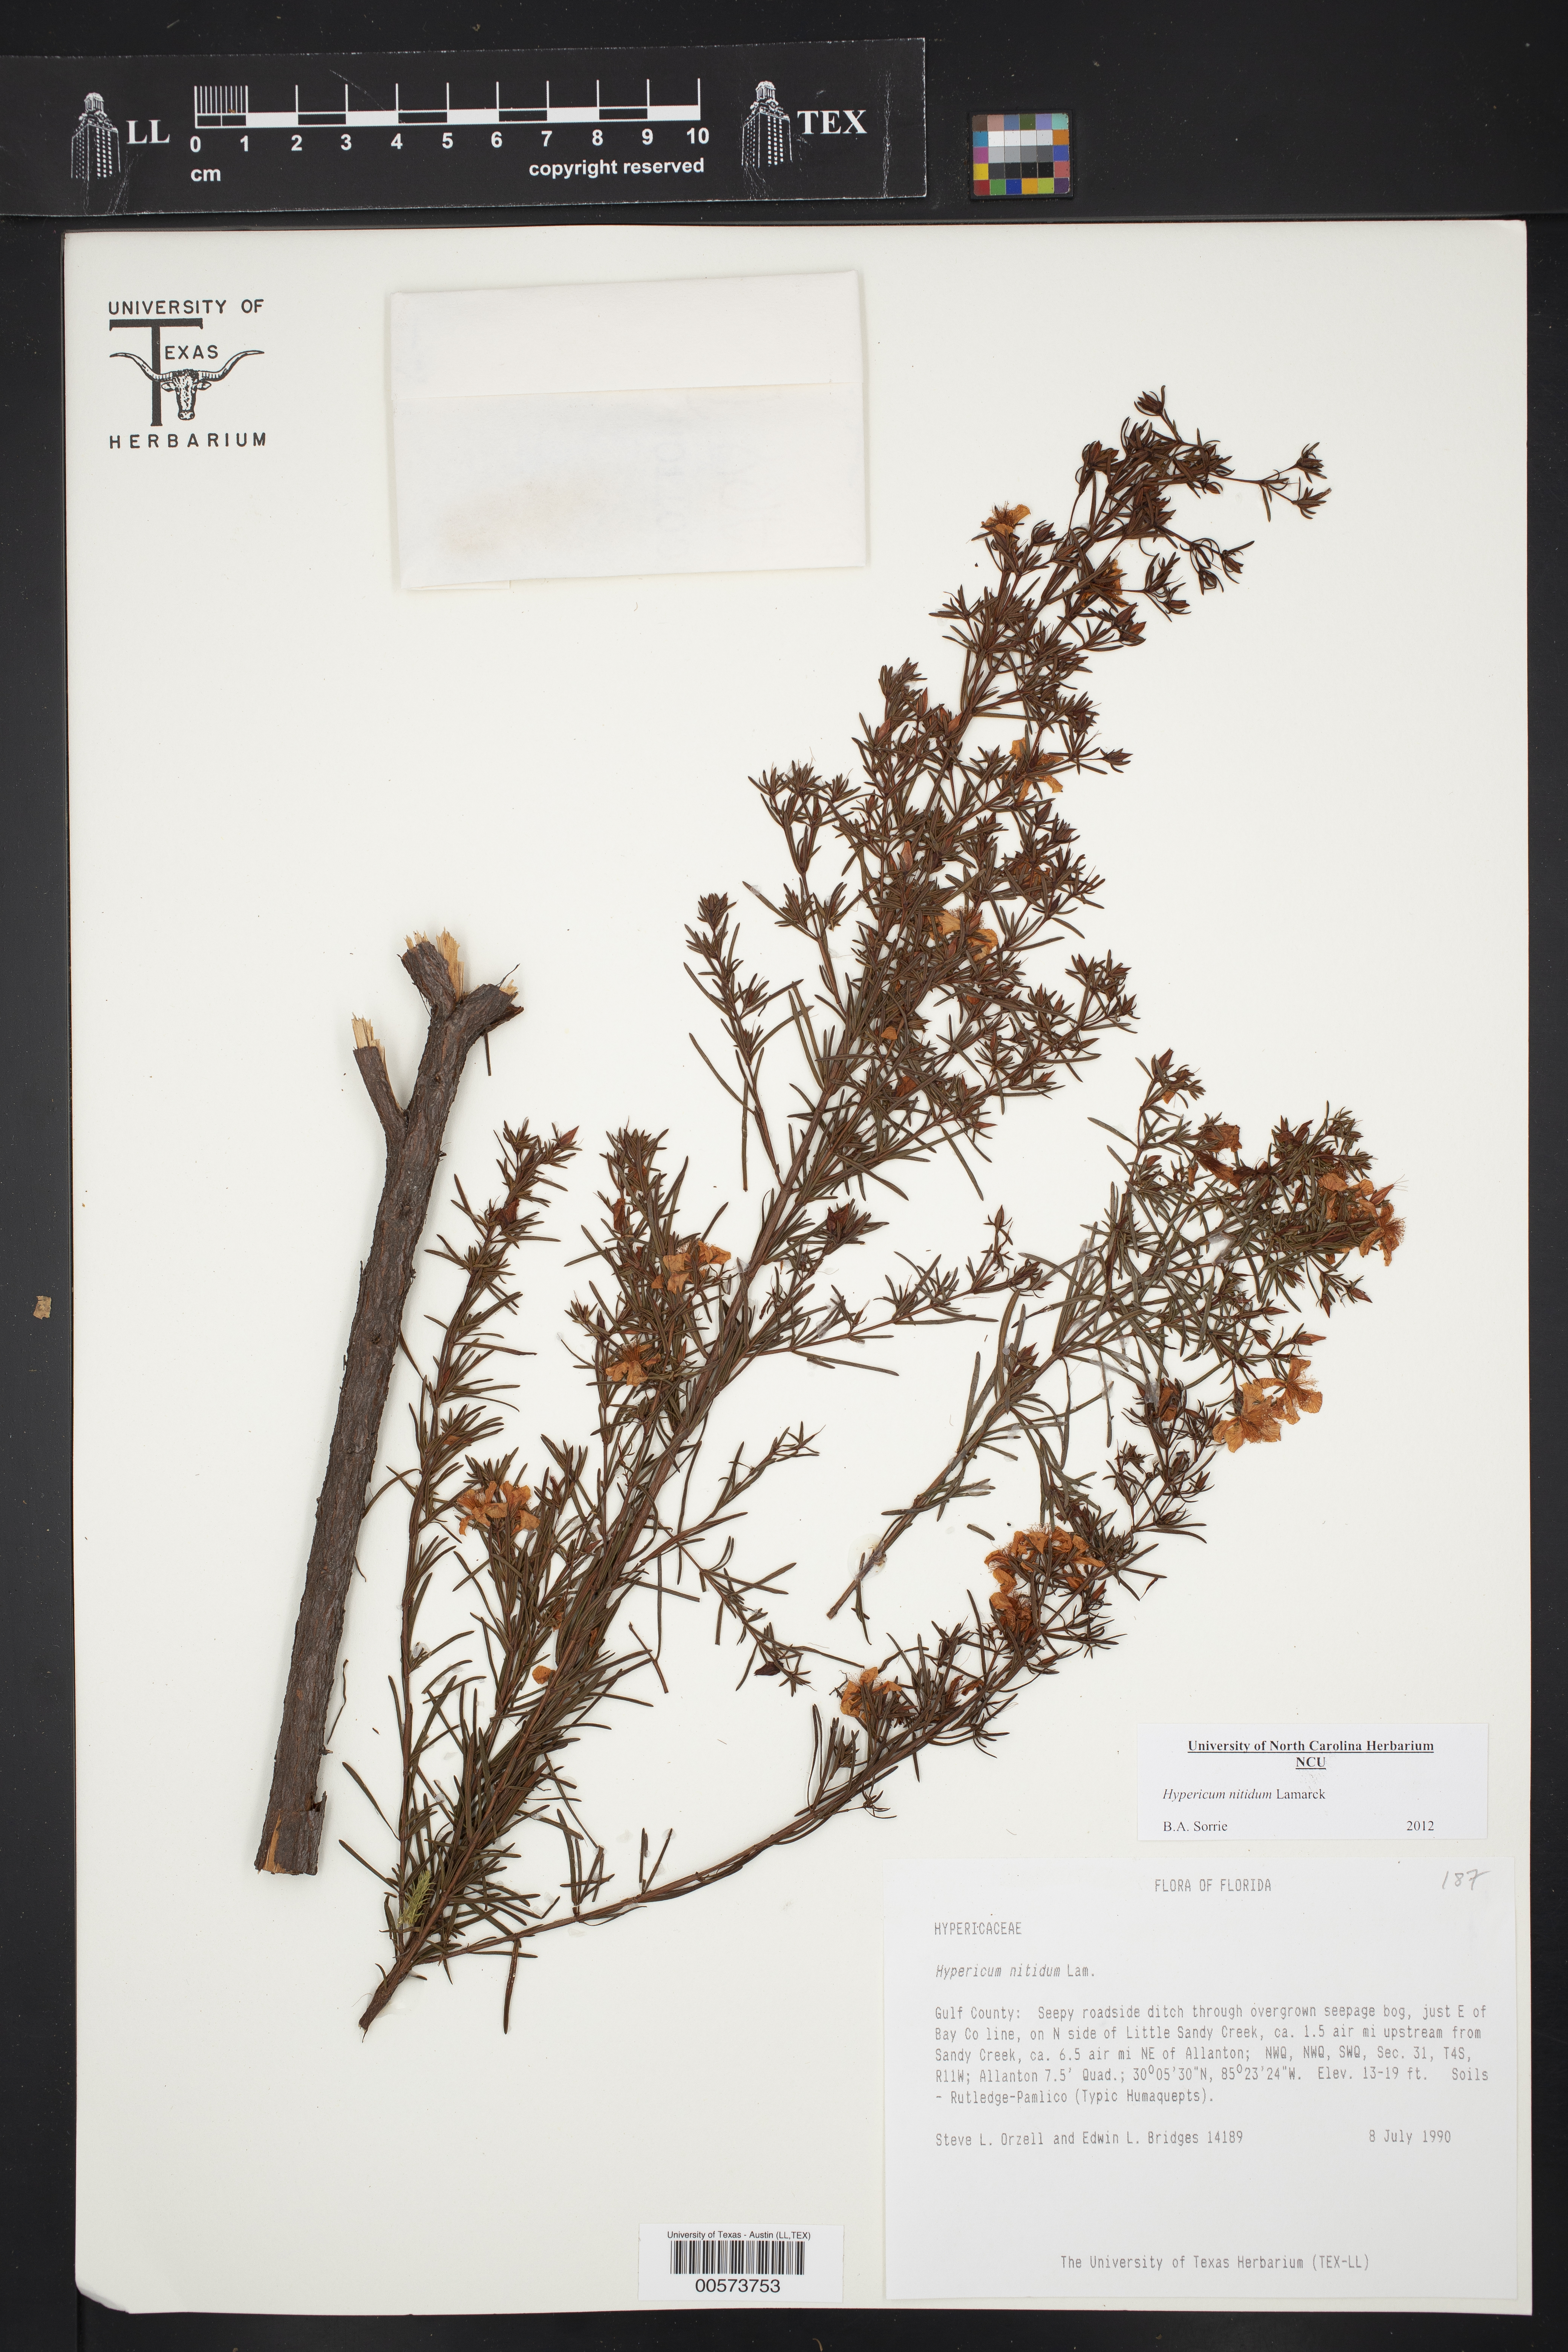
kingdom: Plantae
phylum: Tracheophyta
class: Magnoliopsida
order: Malpighiales
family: Hypericaceae
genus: Hypericum
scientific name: Hypericum nitidum
